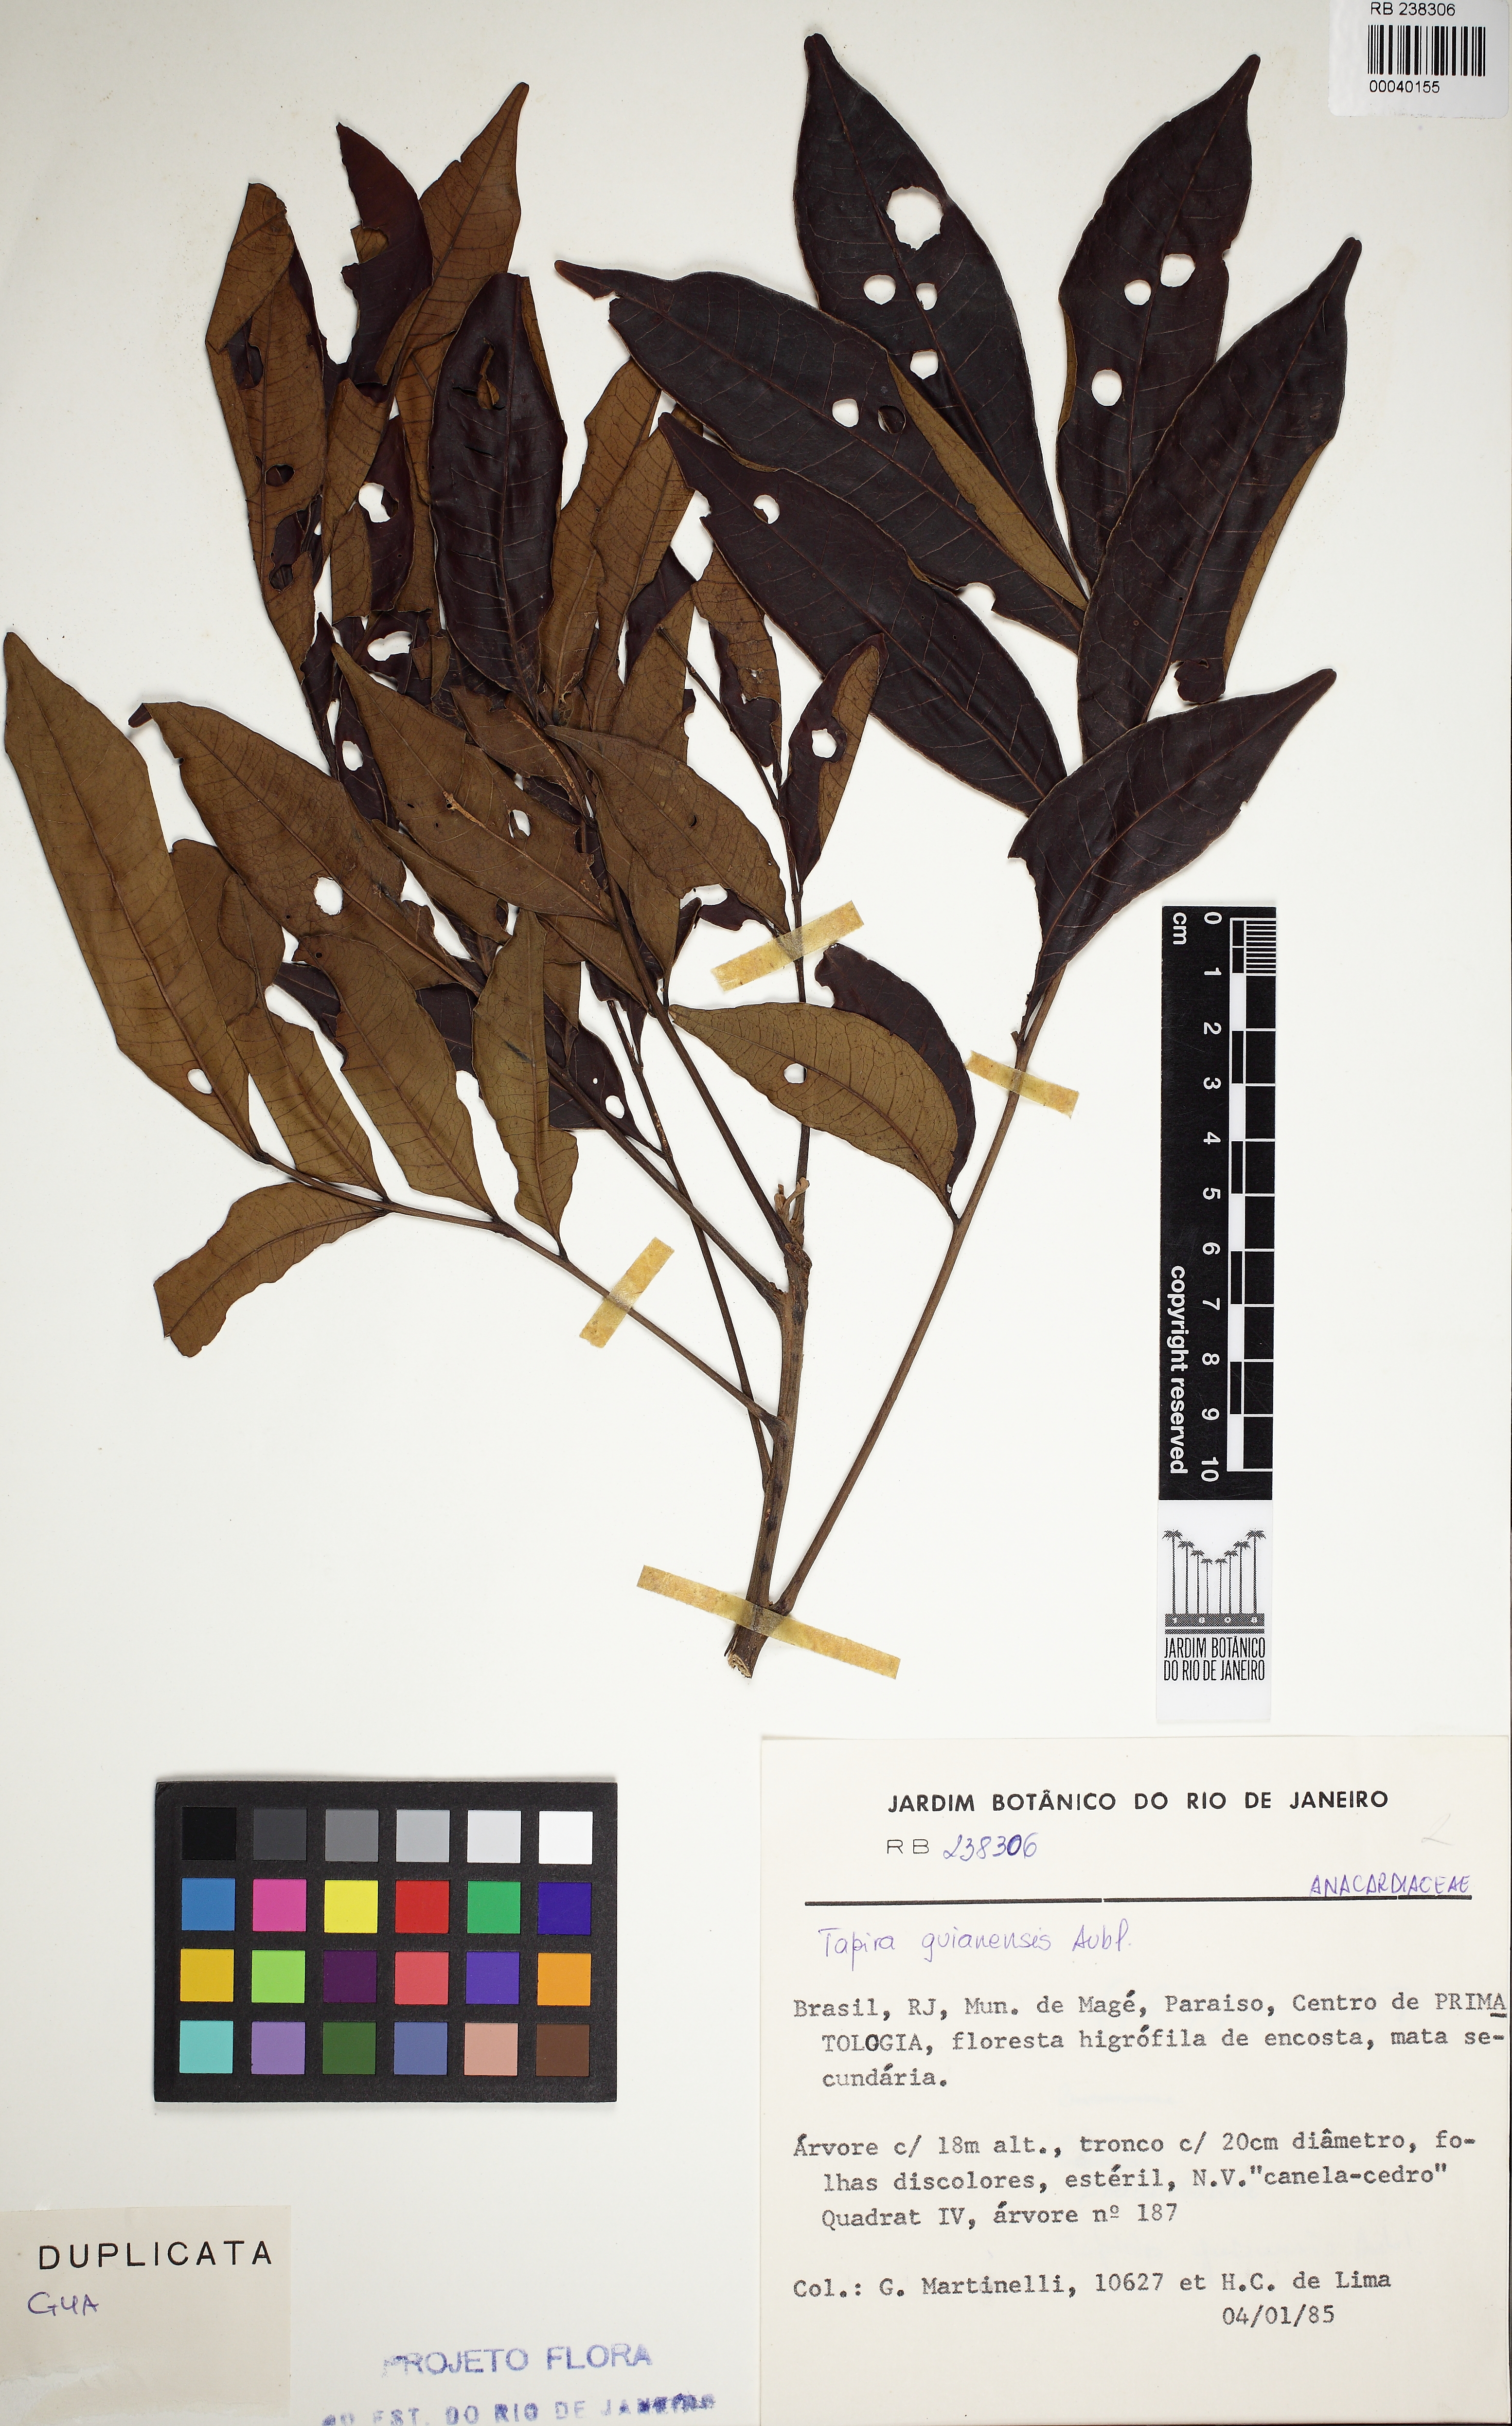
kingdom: Plantae
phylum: Tracheophyta
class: Magnoliopsida
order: Sapindales
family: Anacardiaceae
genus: Tapirira
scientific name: Tapirira guianensis
